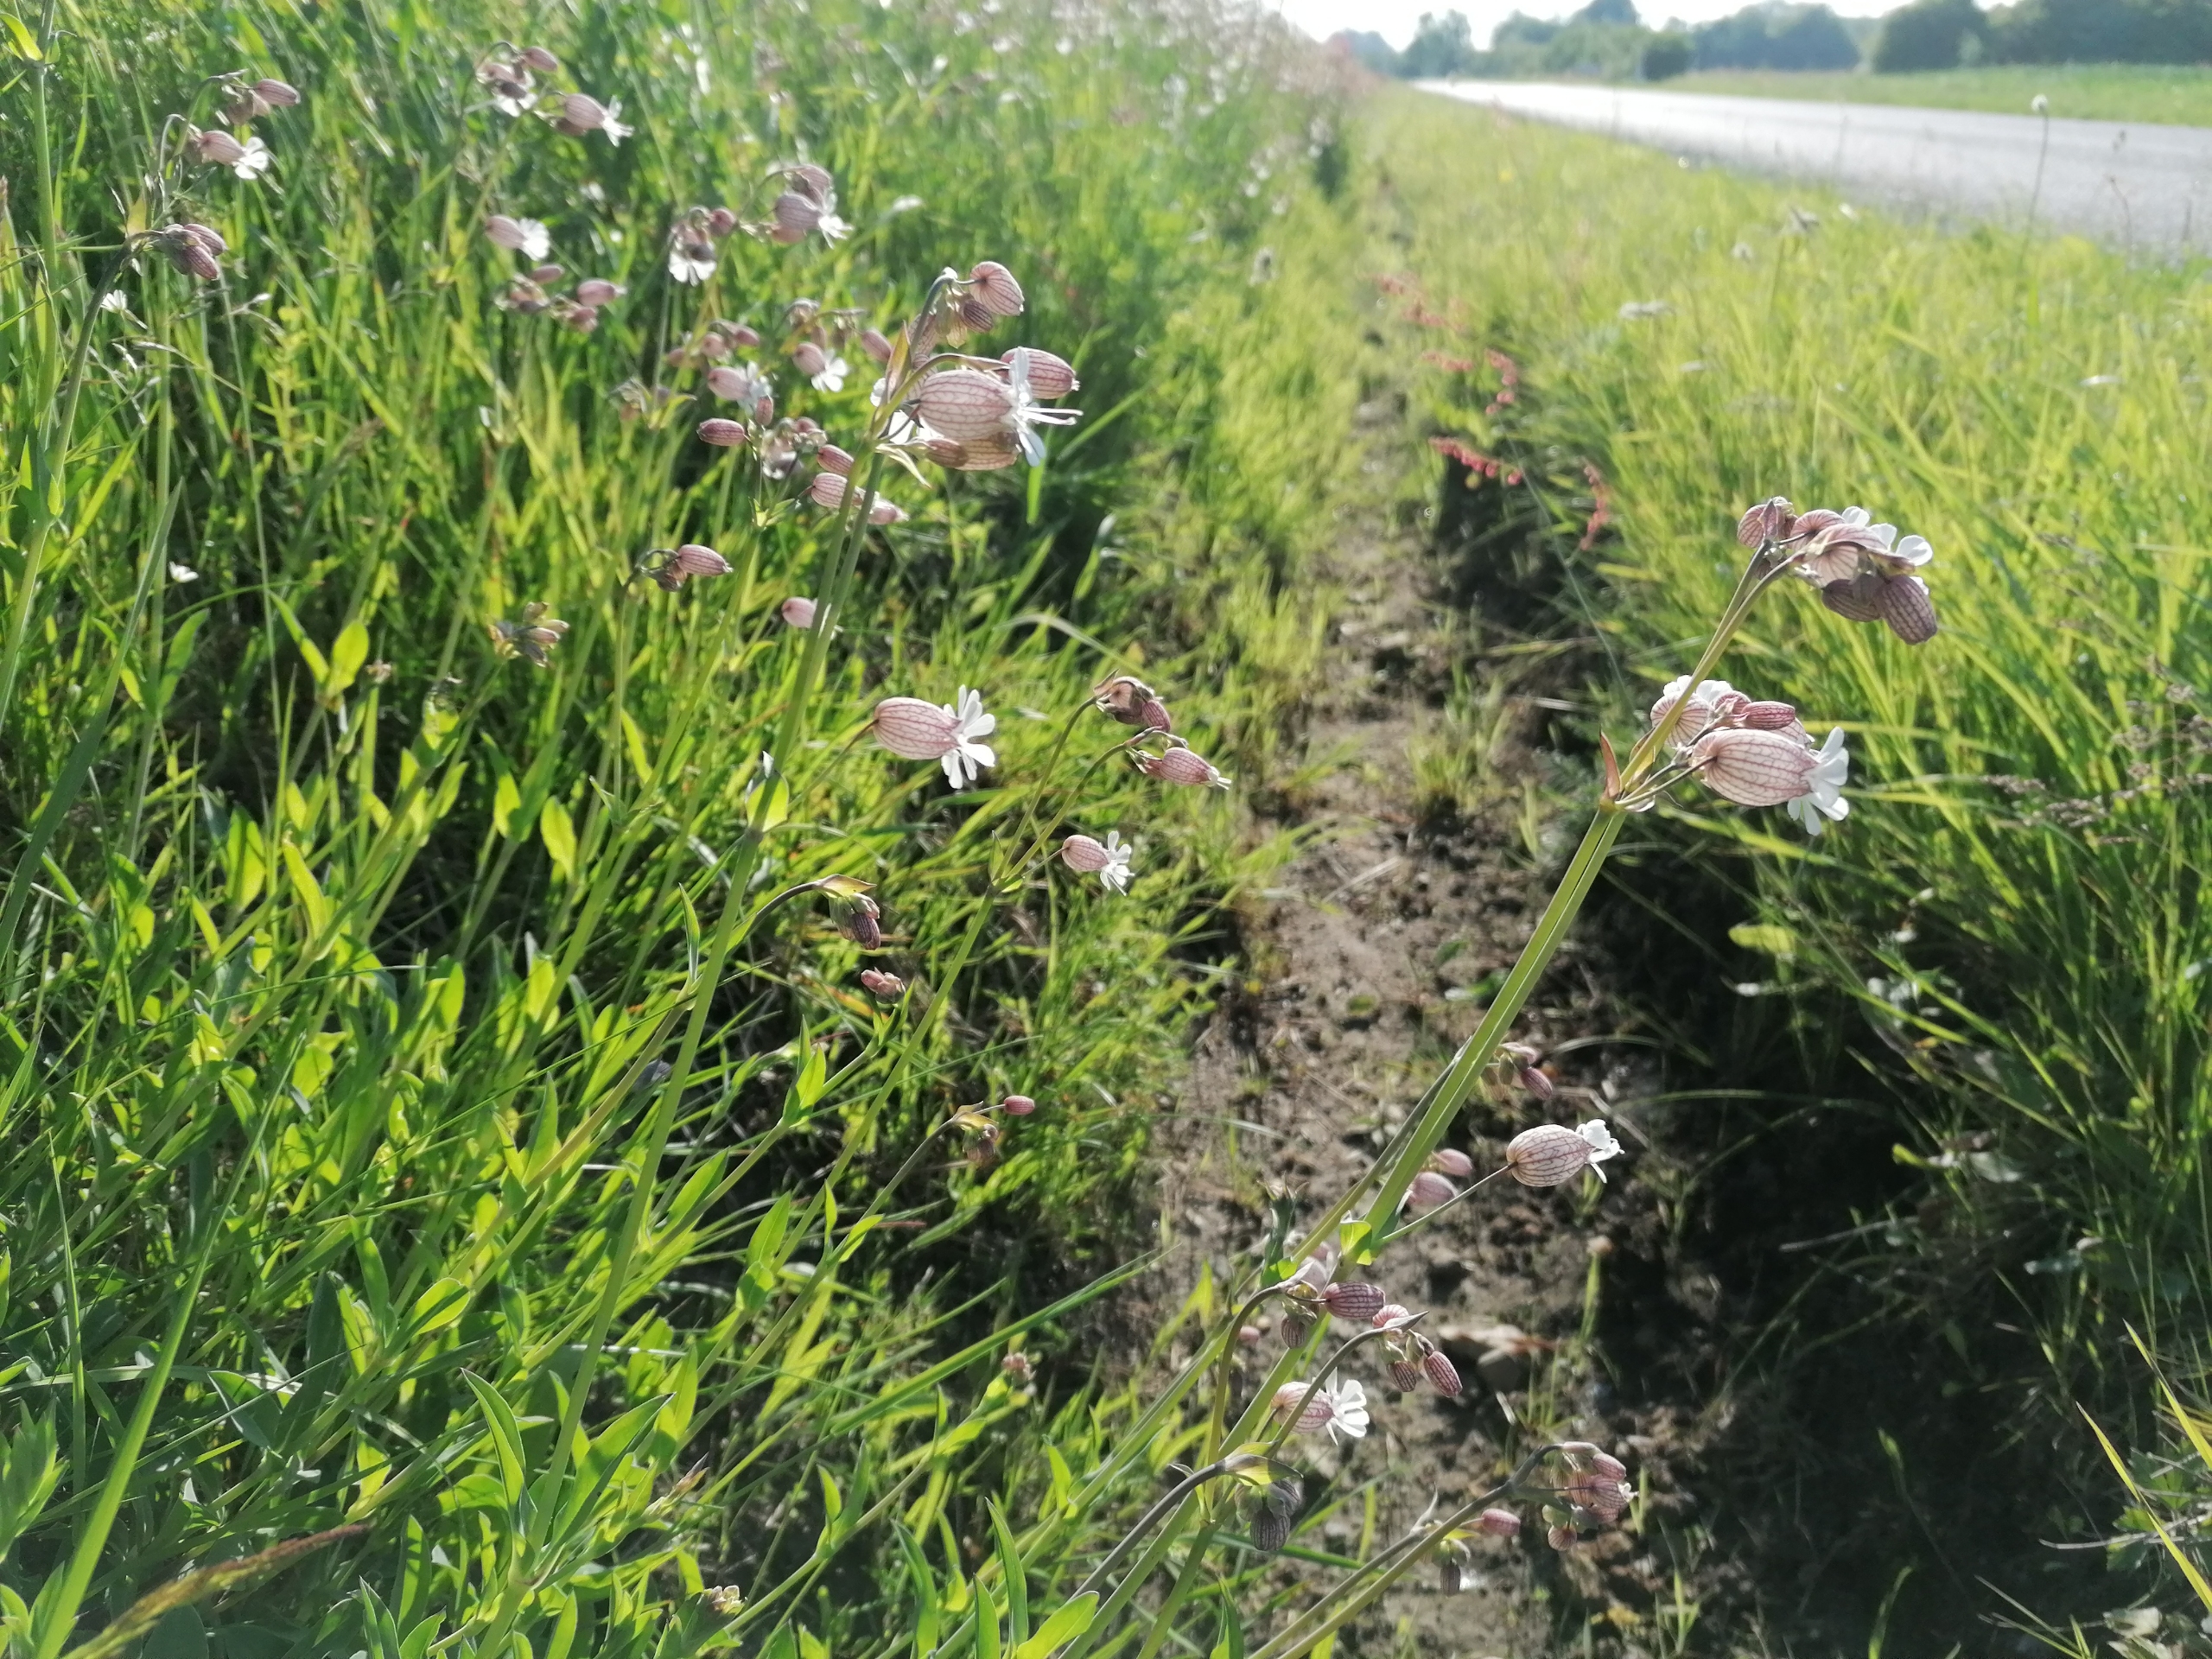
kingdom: Plantae
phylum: Tracheophyta
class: Magnoliopsida
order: Caryophyllales
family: Caryophyllaceae
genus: Silene
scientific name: Silene vulgaris
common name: Blæresmælde
